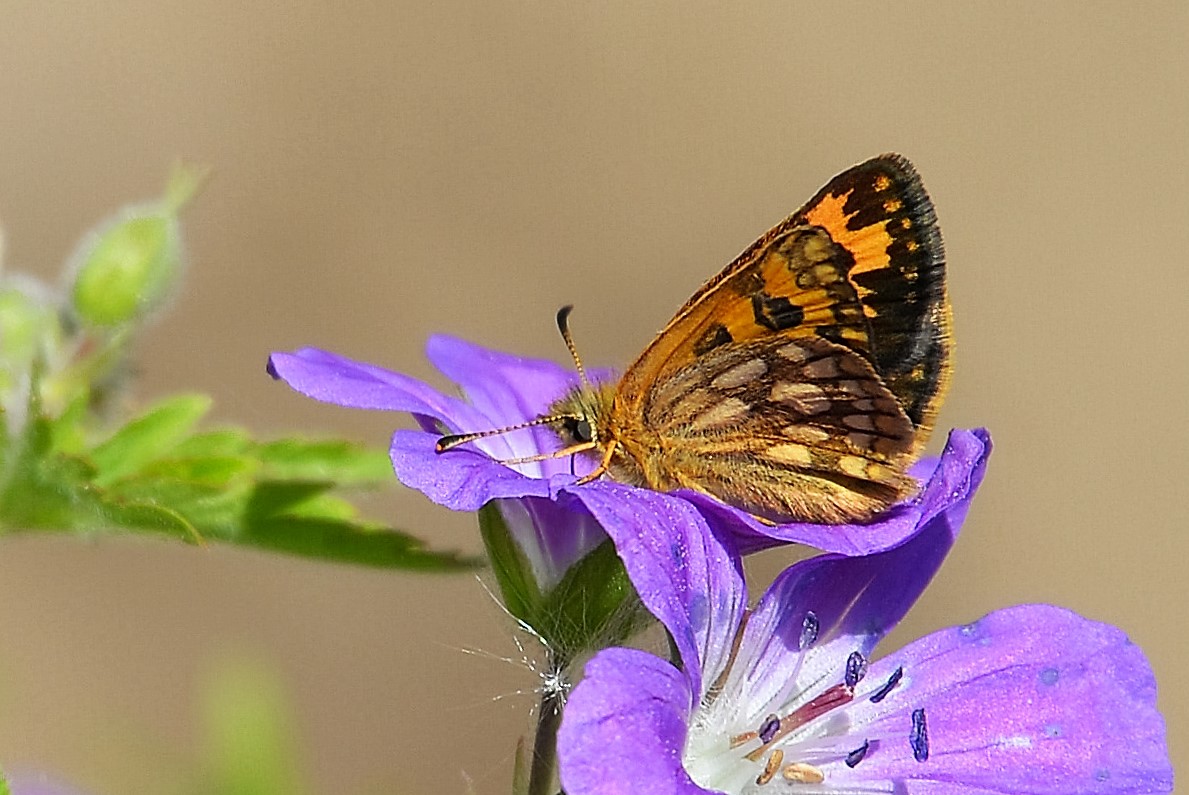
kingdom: Animalia
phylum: Arthropoda
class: Insecta
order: Lepidoptera
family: Hesperiidae
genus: Carterocephalus
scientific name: Carterocephalus silvicola
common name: Northern chequered skipper
